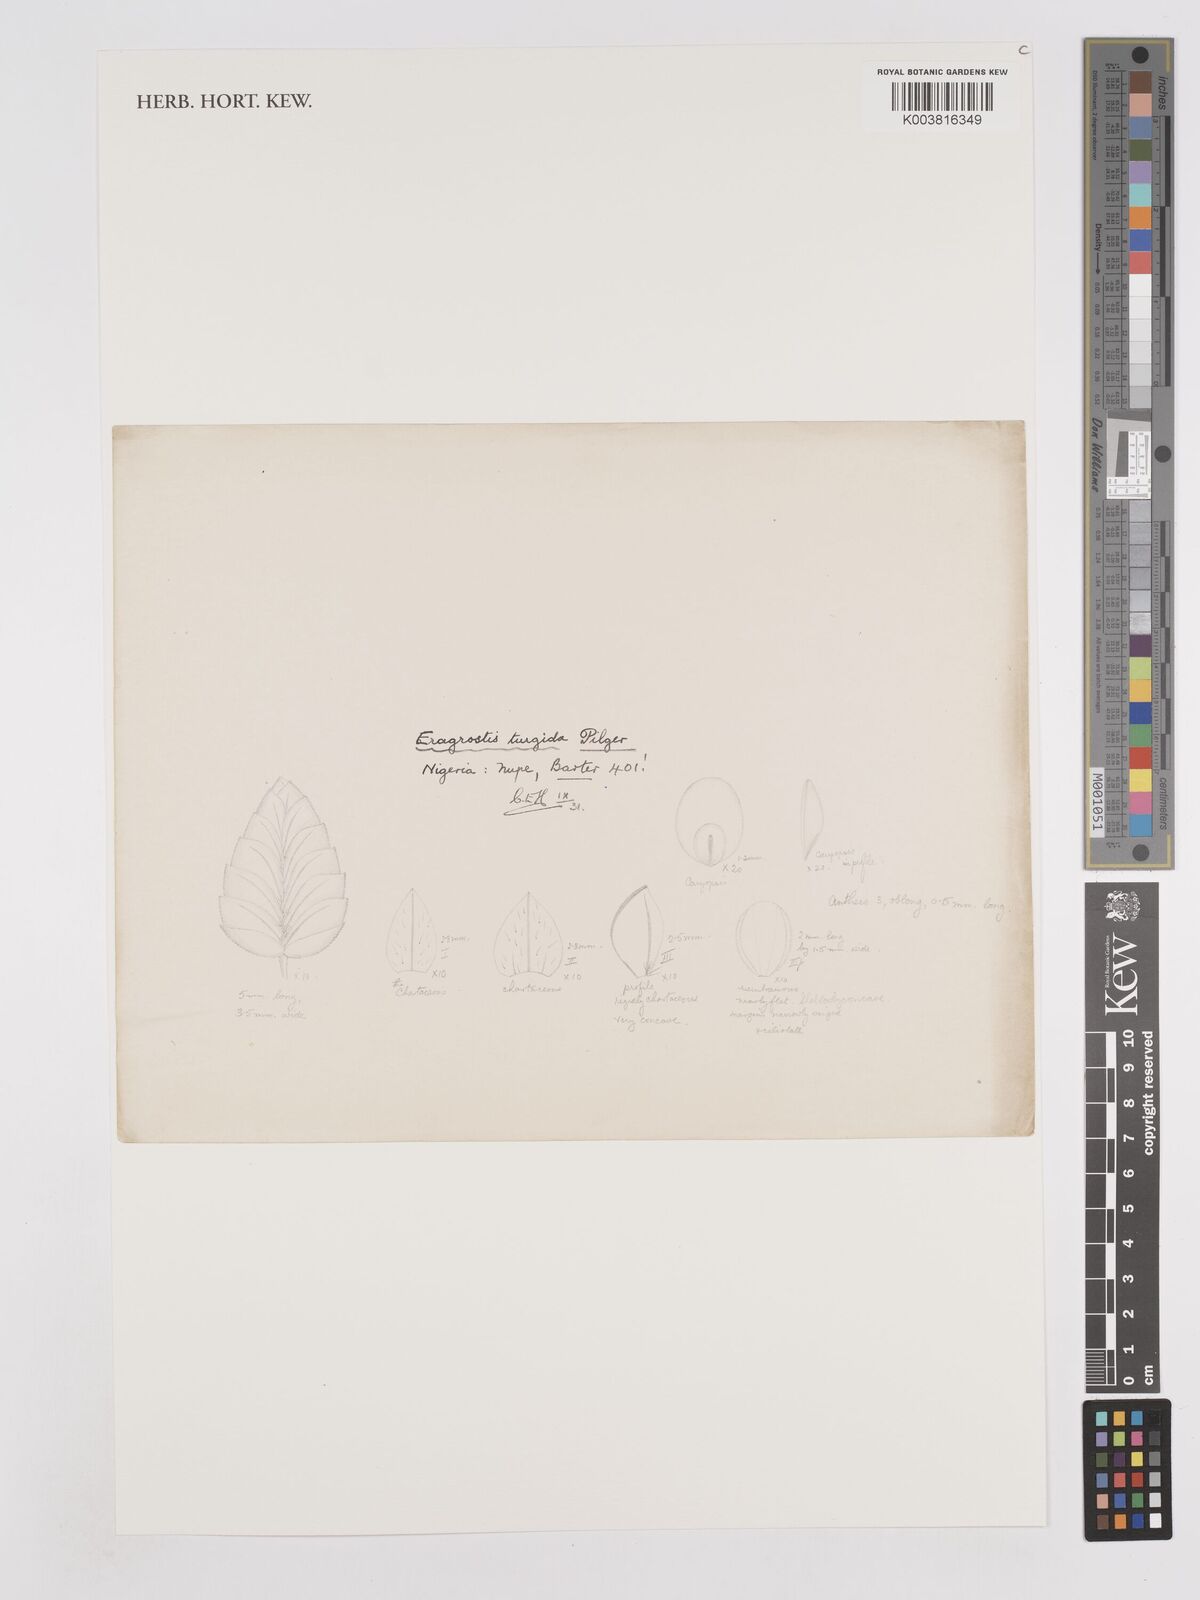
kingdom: Plantae
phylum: Tracheophyta
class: Liliopsida
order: Poales
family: Poaceae
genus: Eragrostis
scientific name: Eragrostis turgida
